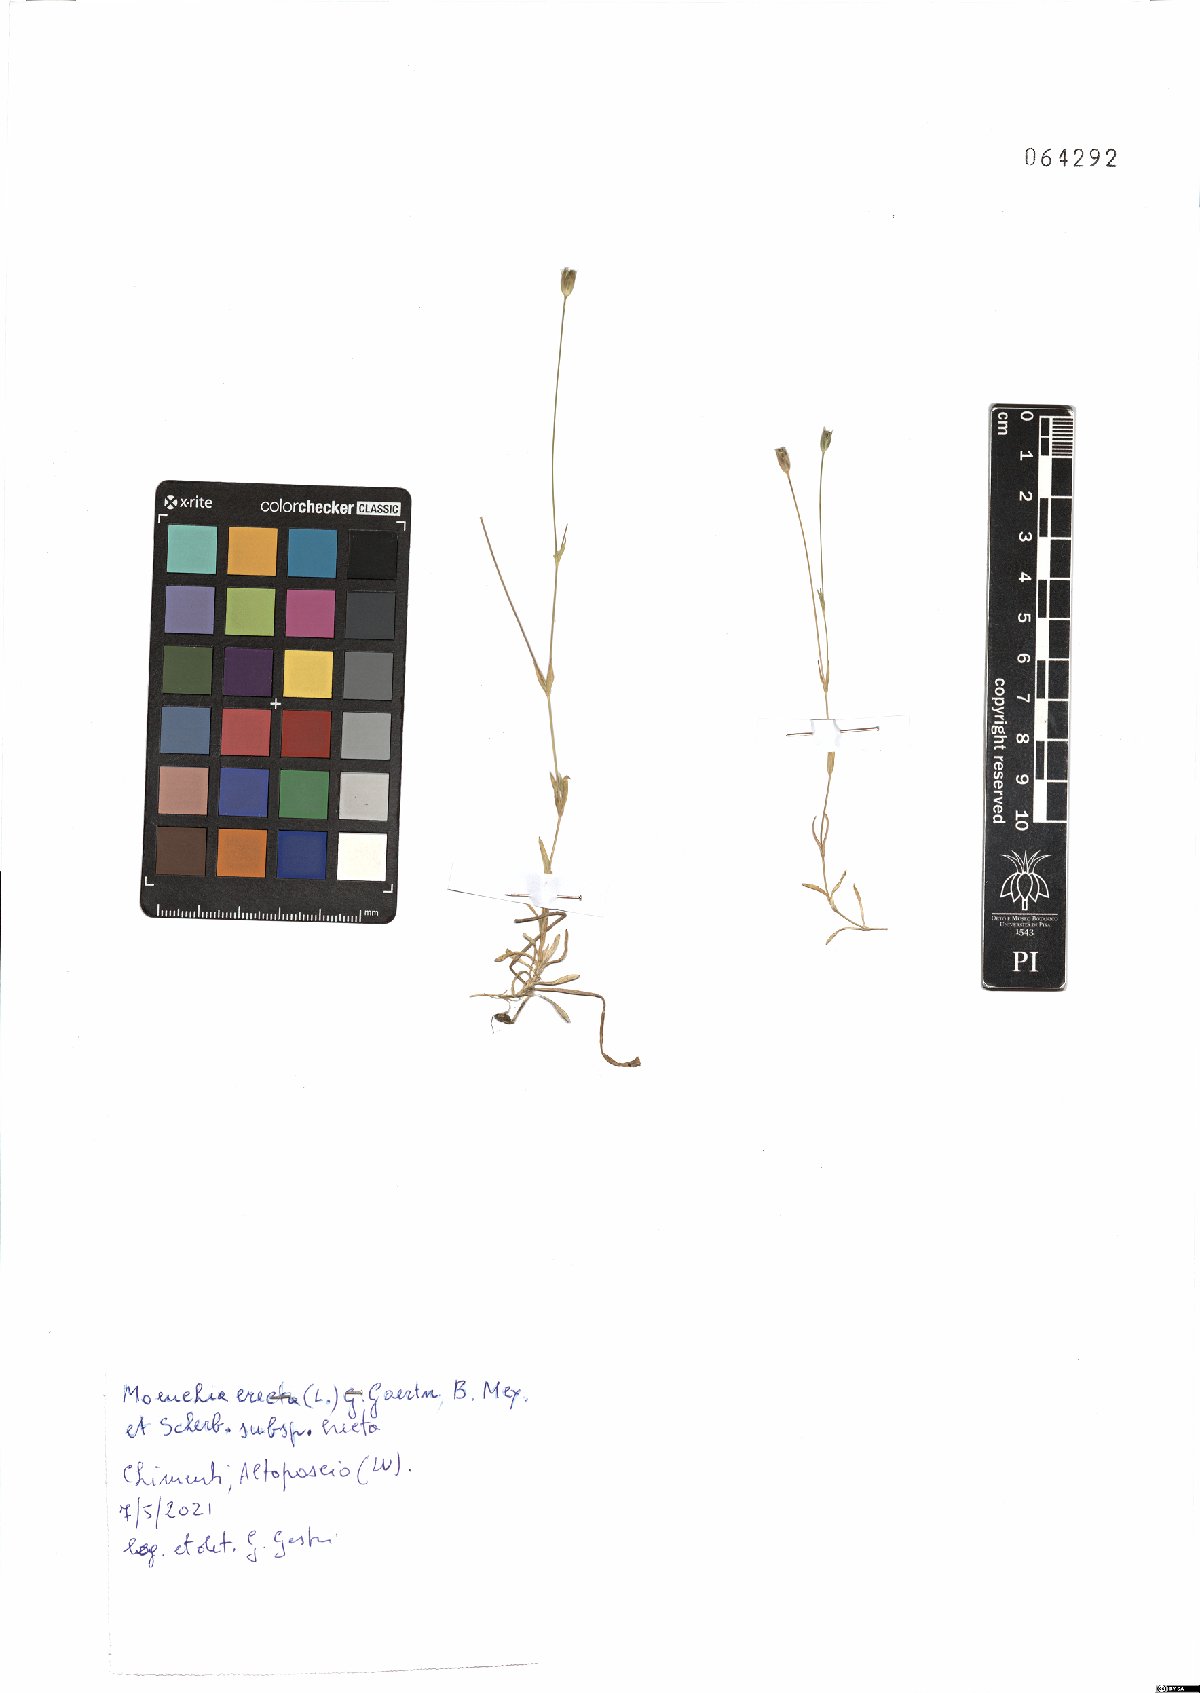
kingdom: Plantae
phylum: Tracheophyta
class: Magnoliopsida
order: Caryophyllales
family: Caryophyllaceae
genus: Moenchia
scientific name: Moenchia erecta
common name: Upright chickweed
